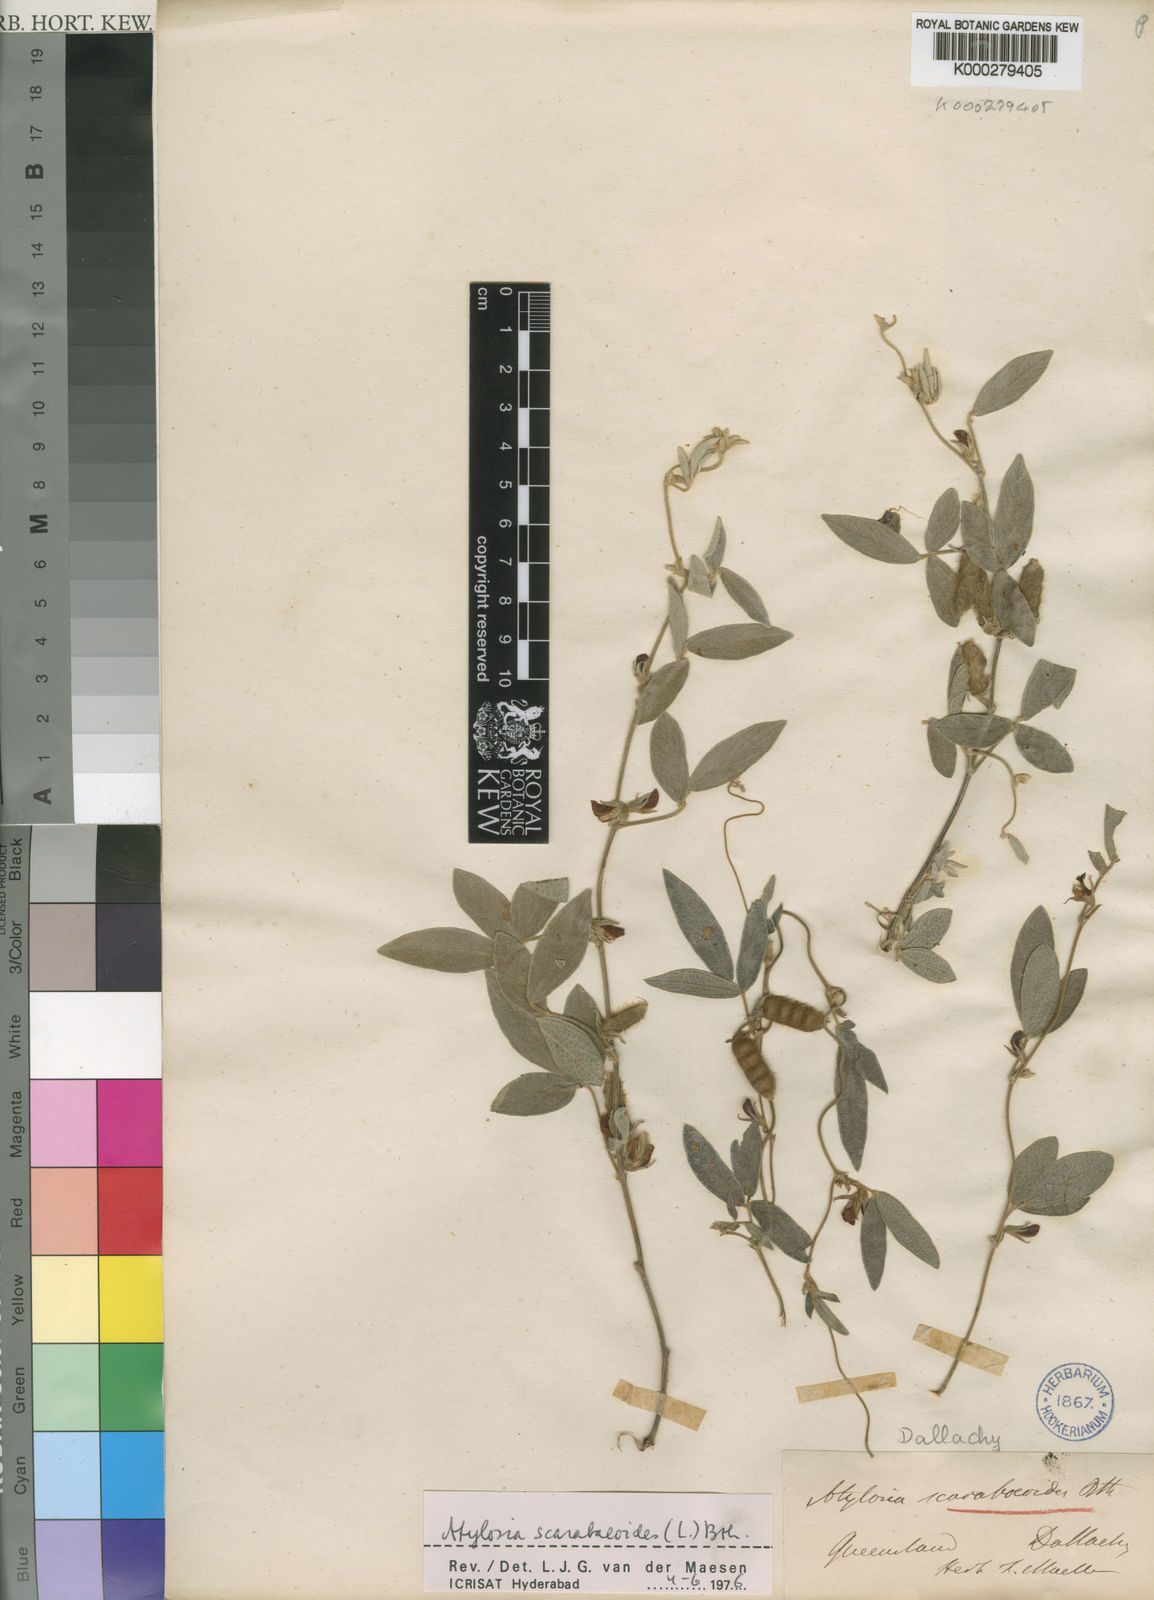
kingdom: Plantae
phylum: Tracheophyta
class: Magnoliopsida
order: Fabales
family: Fabaceae
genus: Cajanus
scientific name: Cajanus scarabaeoides
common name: Showy pigeonpea
